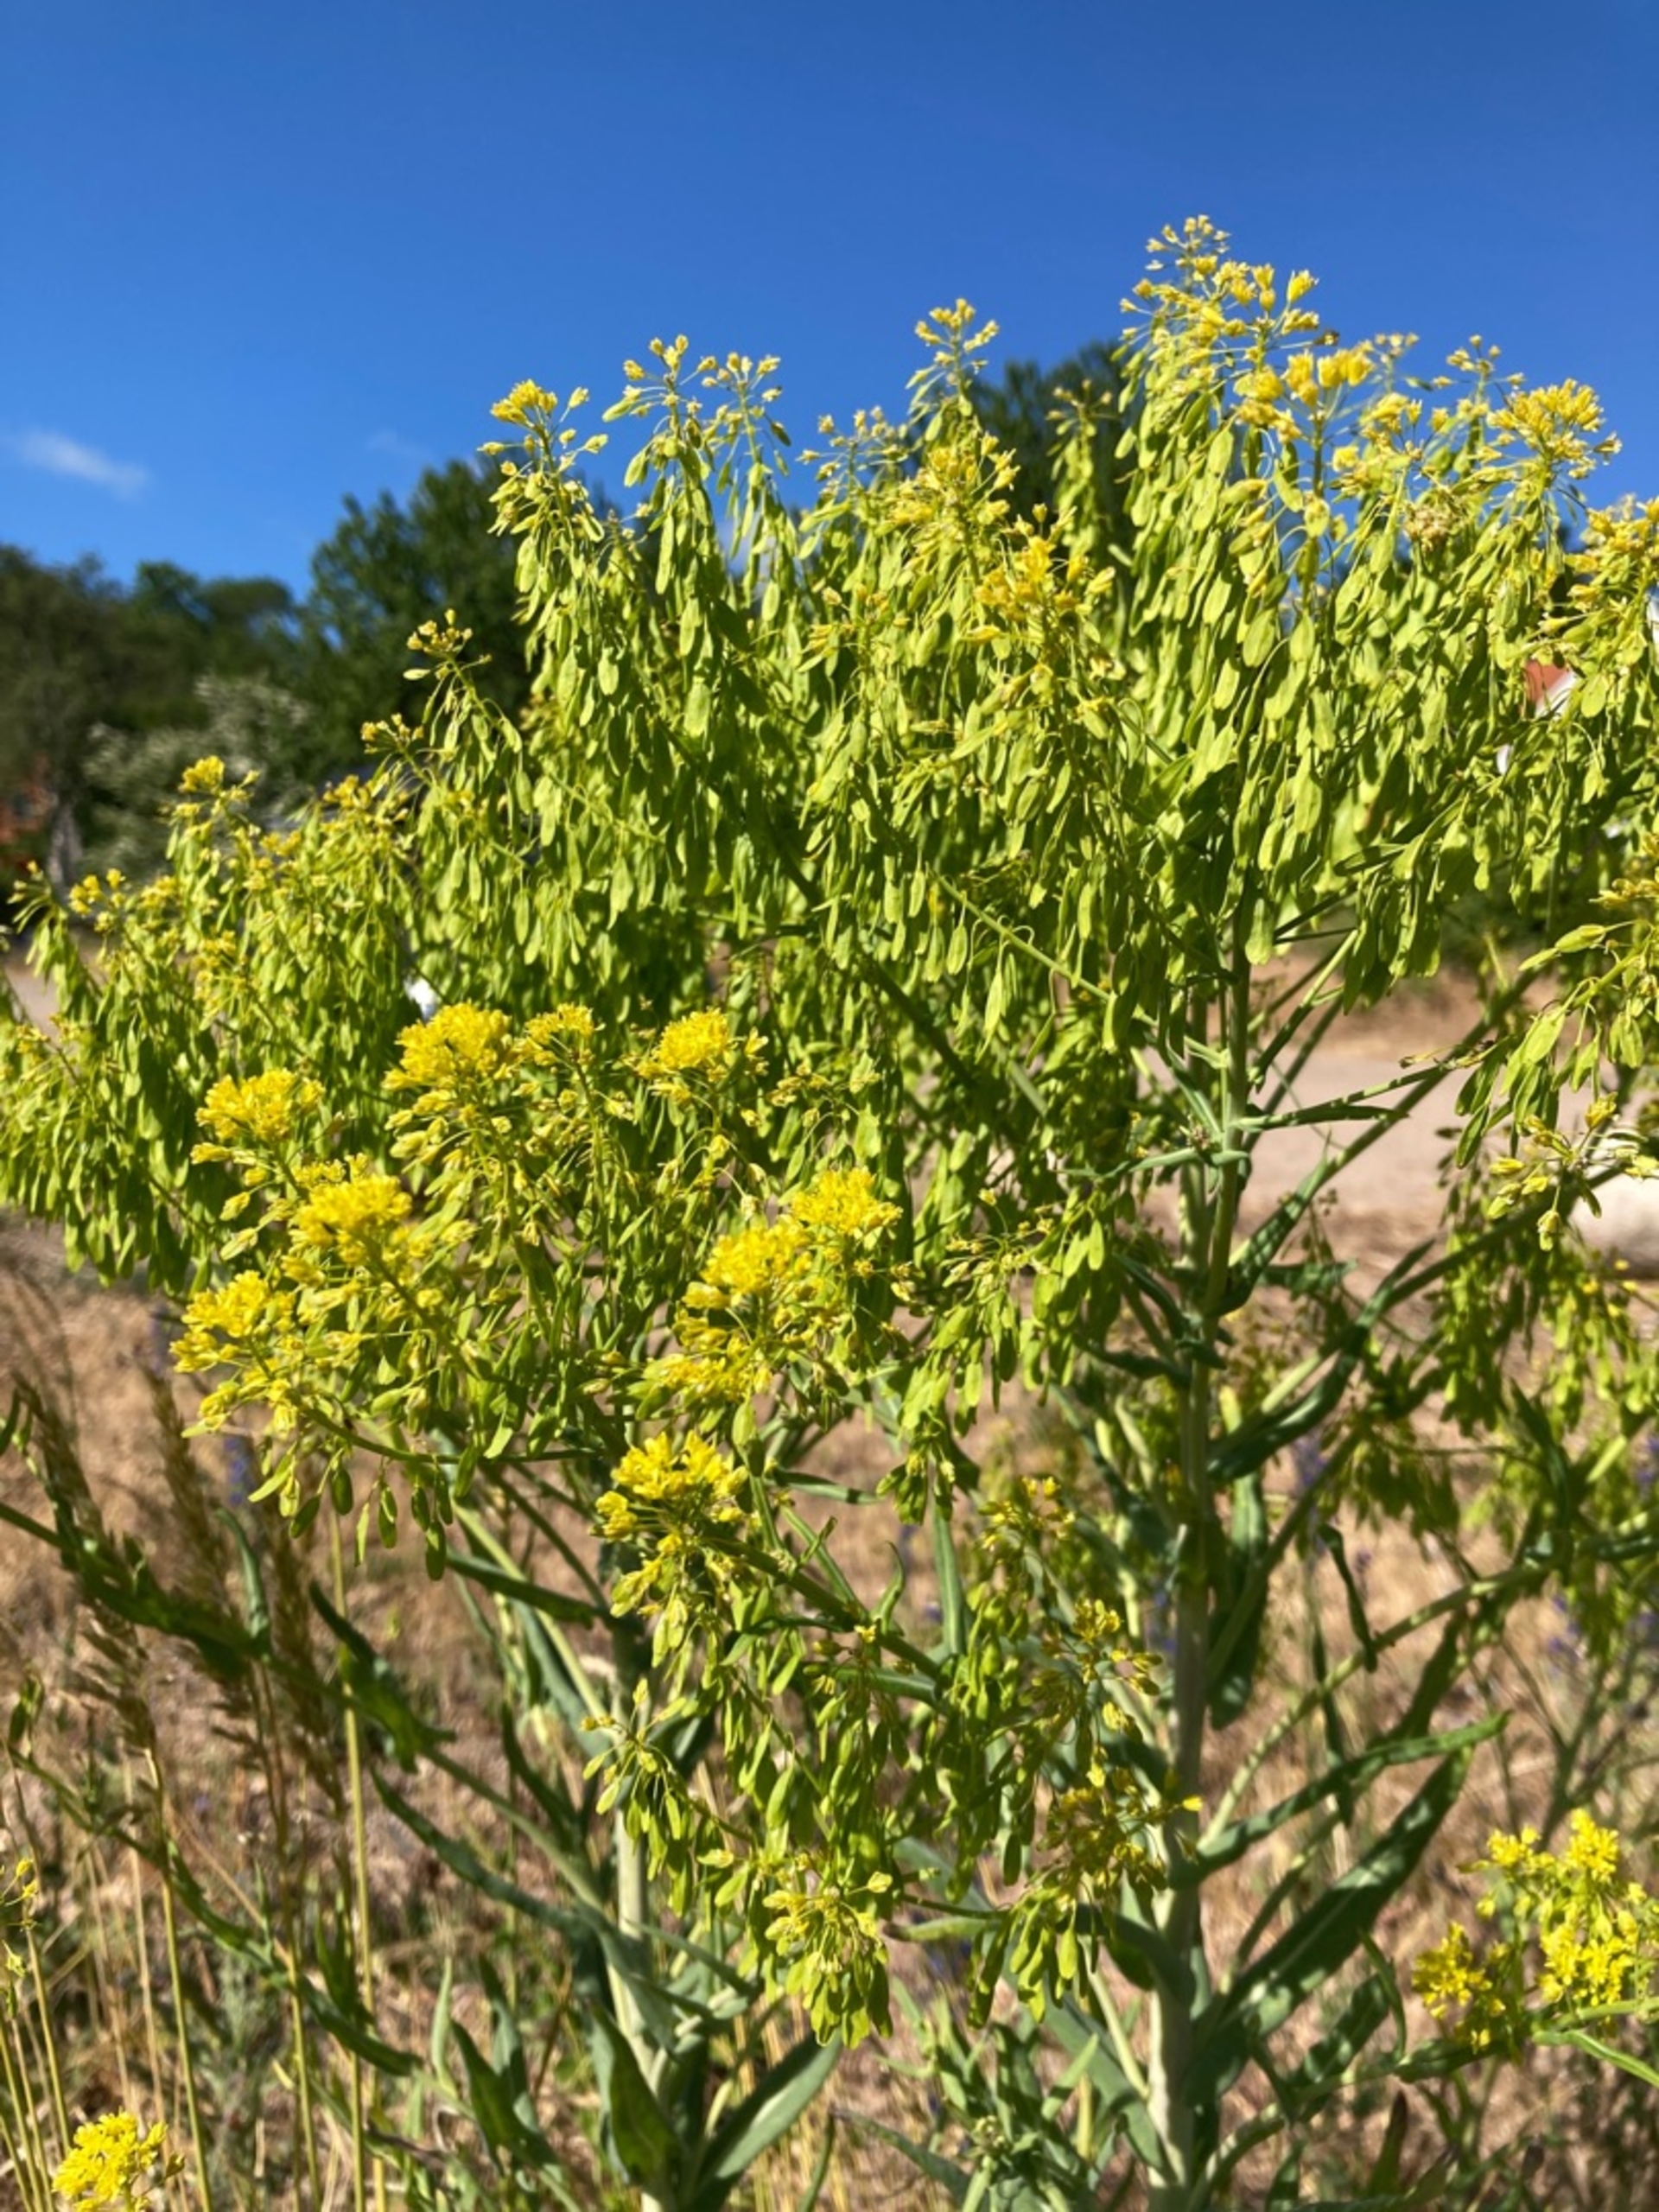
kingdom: Plantae
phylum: Tracheophyta
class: Magnoliopsida
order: Brassicales
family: Brassicaceae
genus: Isatis
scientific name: Isatis tinctoria
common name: Farve-vajd
